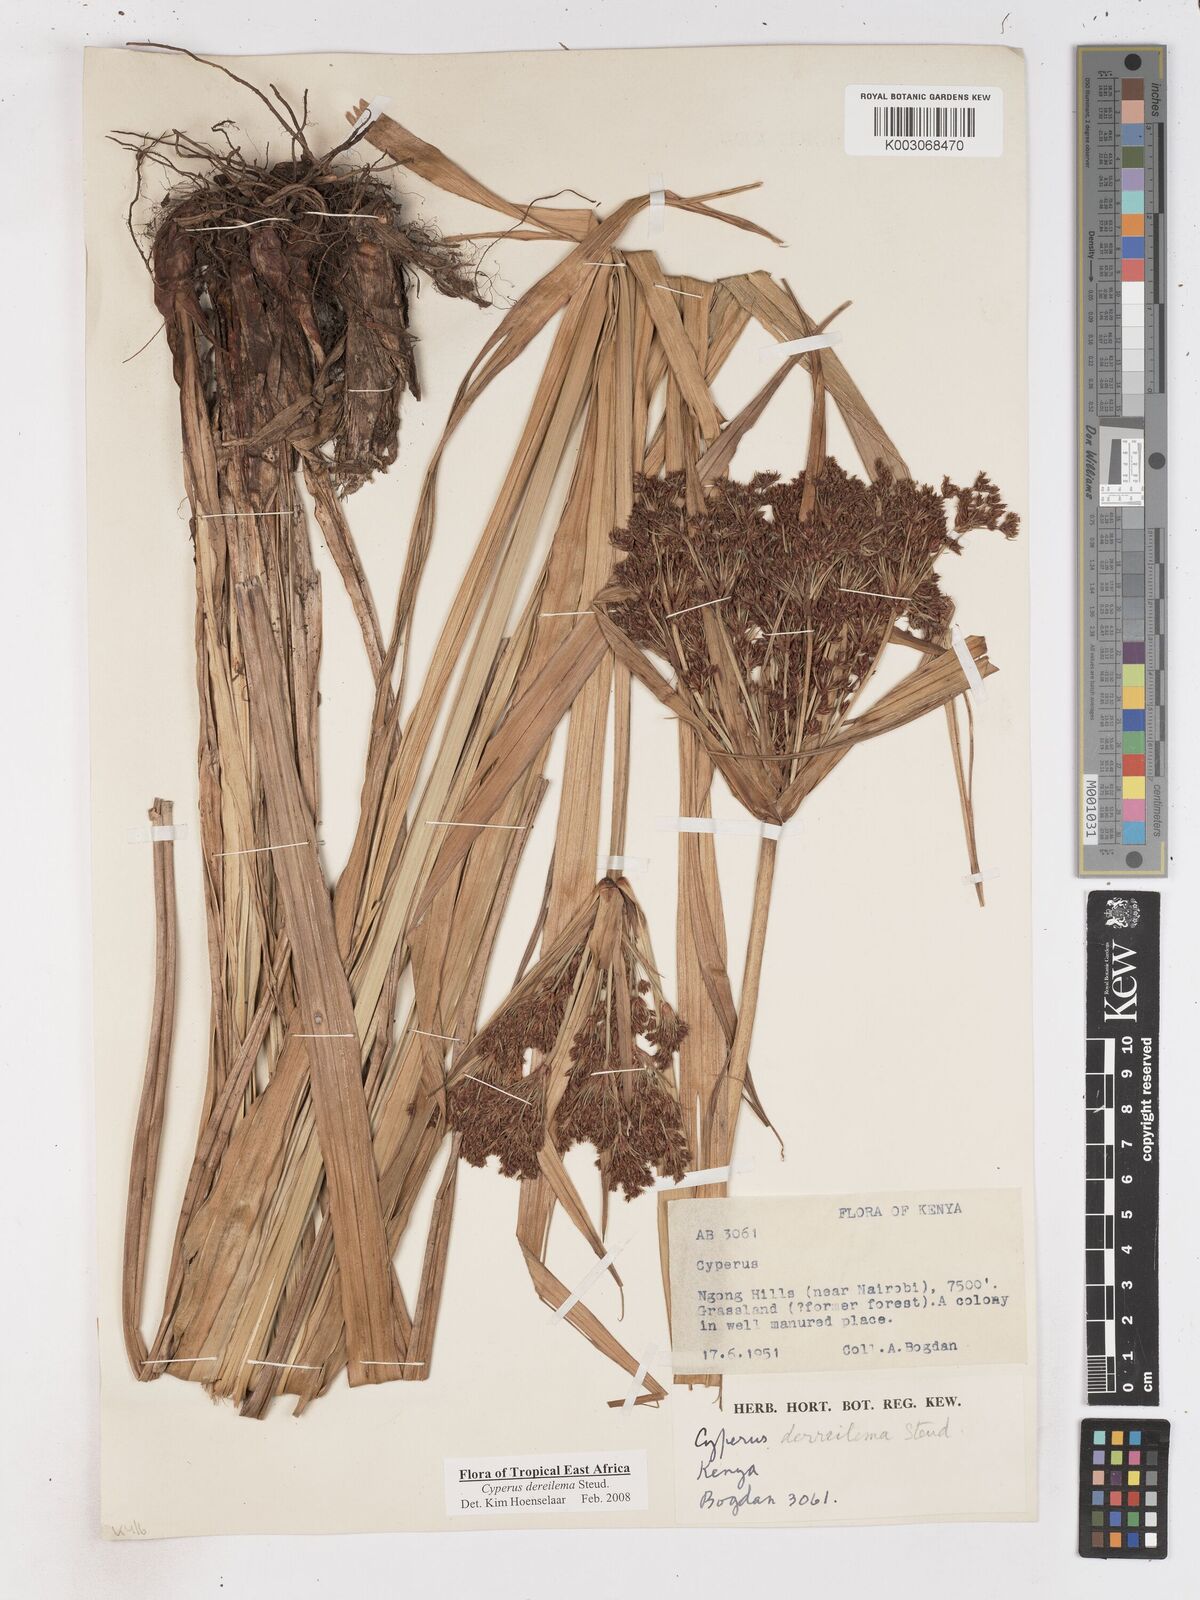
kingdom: Plantae
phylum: Tracheophyta
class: Liliopsida
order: Poales
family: Cyperaceae
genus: Cyperus
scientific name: Cyperus derreilema
